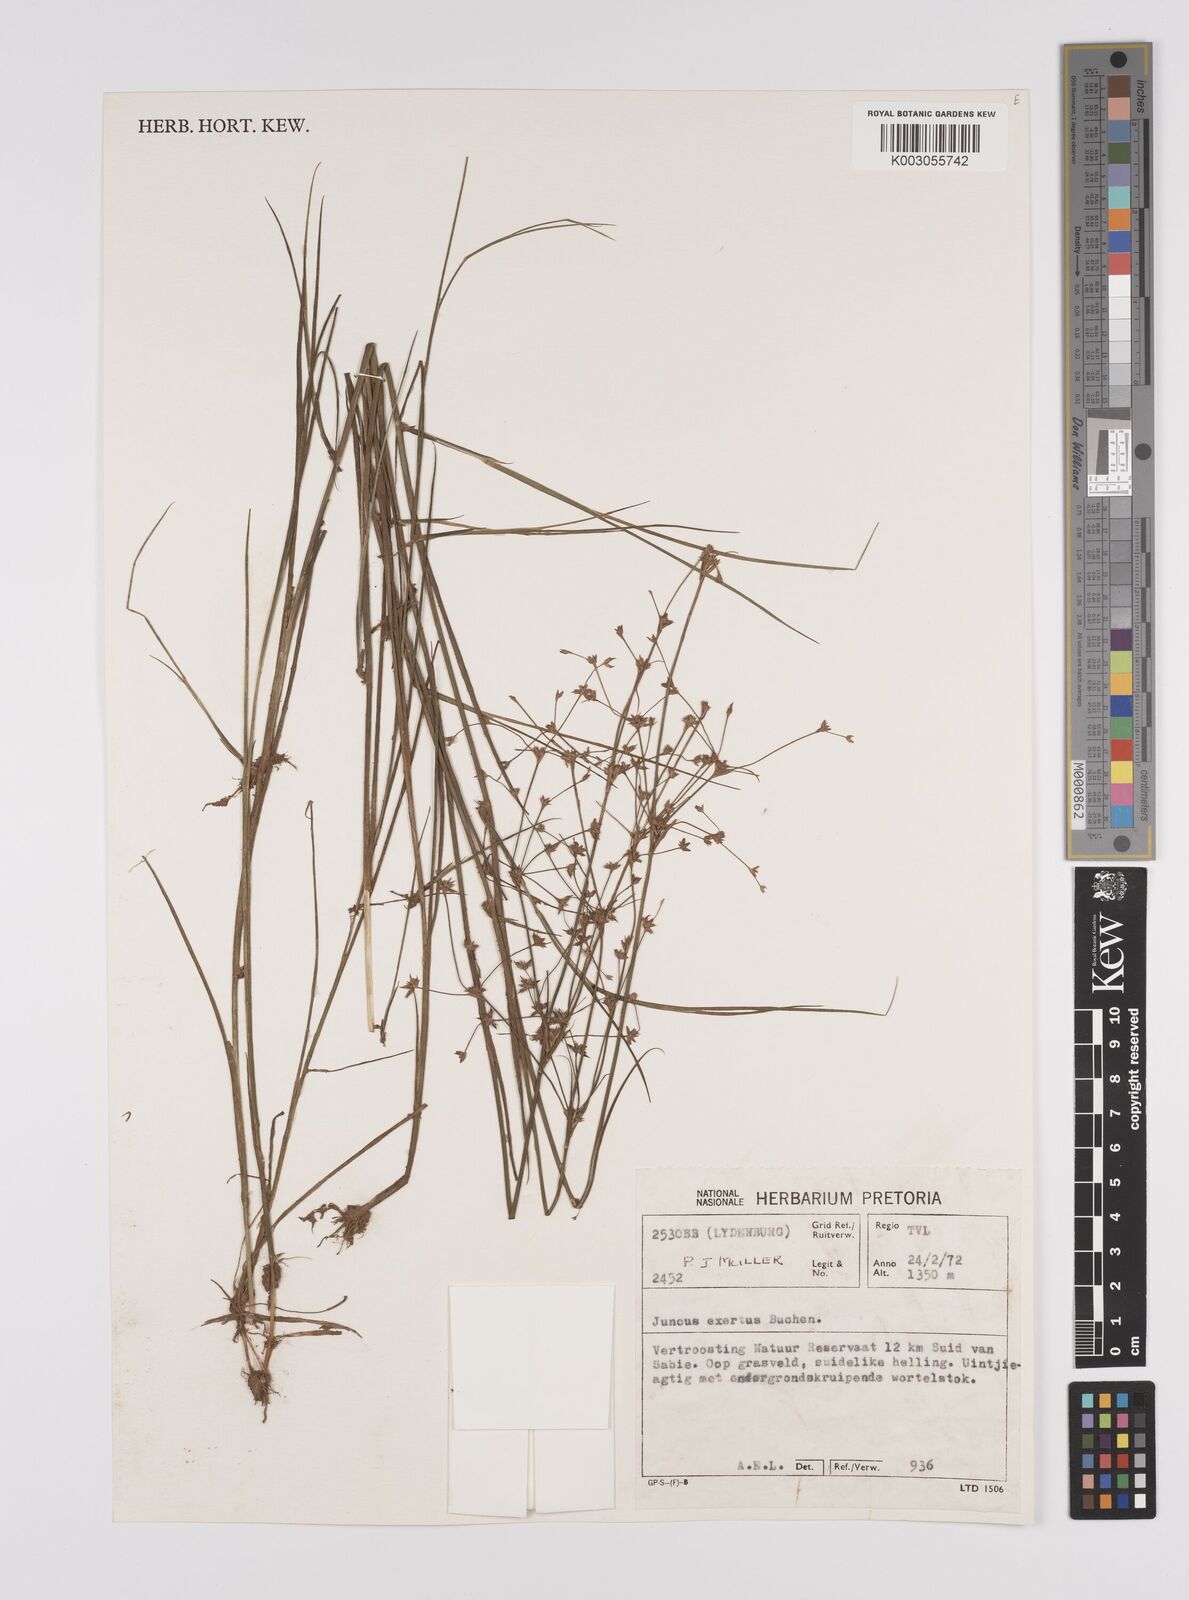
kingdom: Plantae
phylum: Tracheophyta
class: Liliopsida
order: Poales
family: Juncaceae
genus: Juncus
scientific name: Juncus exsertus
